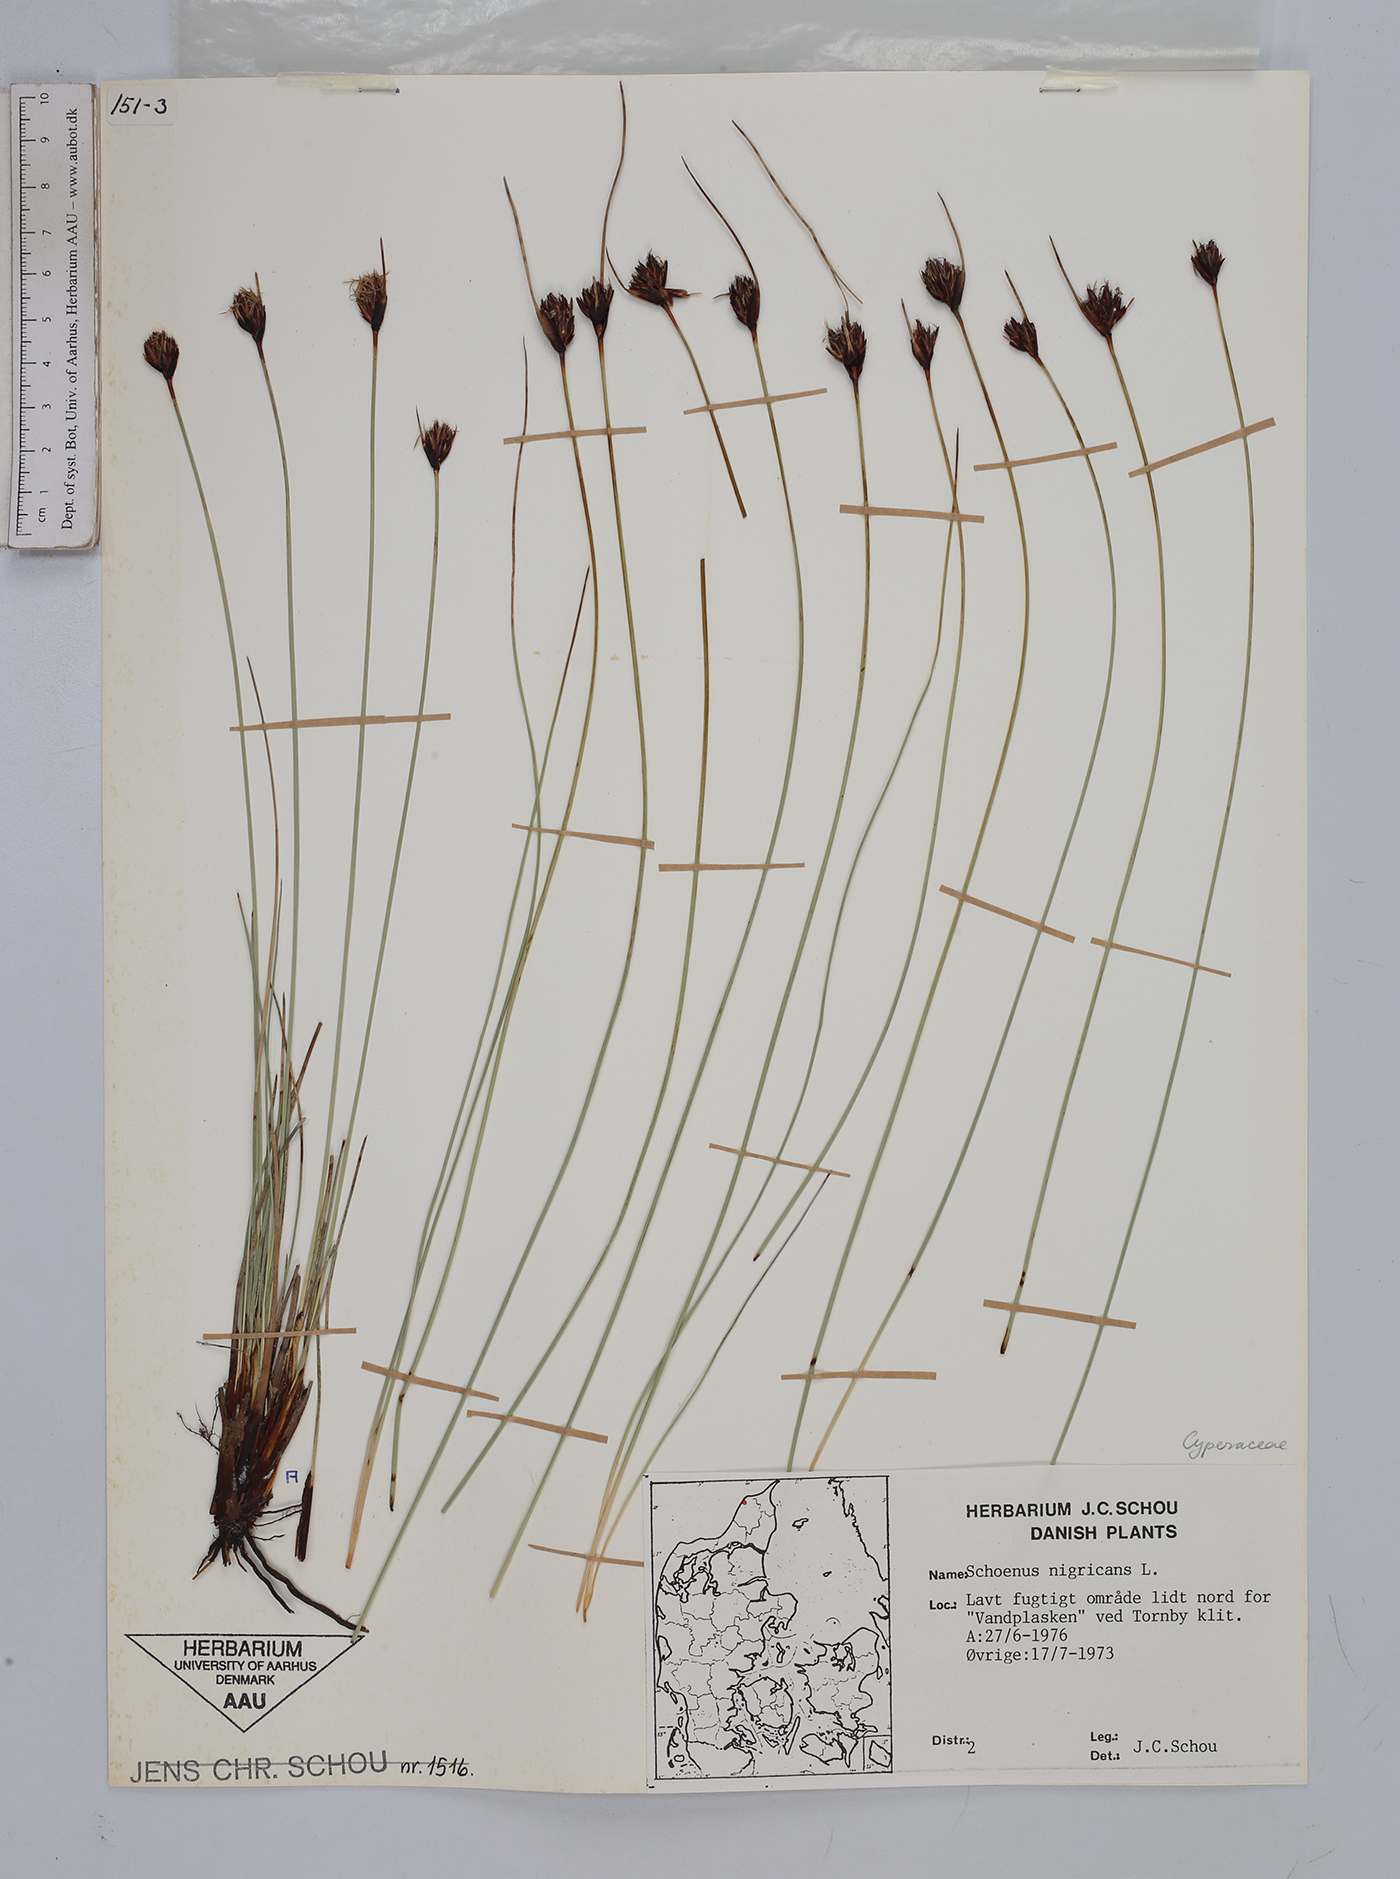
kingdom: Plantae
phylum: Tracheophyta
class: Liliopsida
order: Poales
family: Cyperaceae
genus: Schoenus
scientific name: Schoenus nigricans
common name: Black bog-rush
